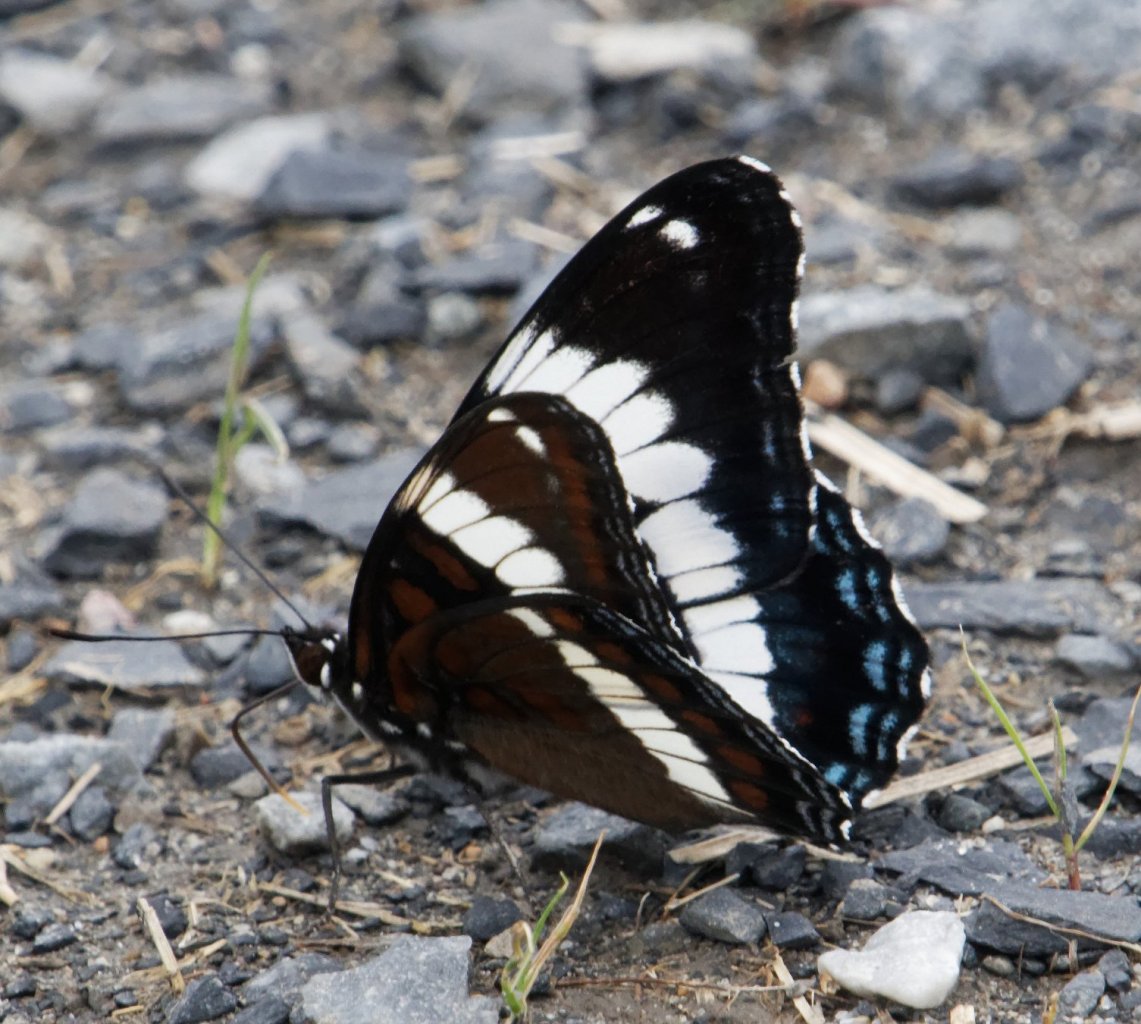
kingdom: Animalia
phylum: Arthropoda
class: Insecta
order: Lepidoptera
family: Nymphalidae
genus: Limenitis
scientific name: Limenitis arthemis
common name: Red-spotted Admiral
